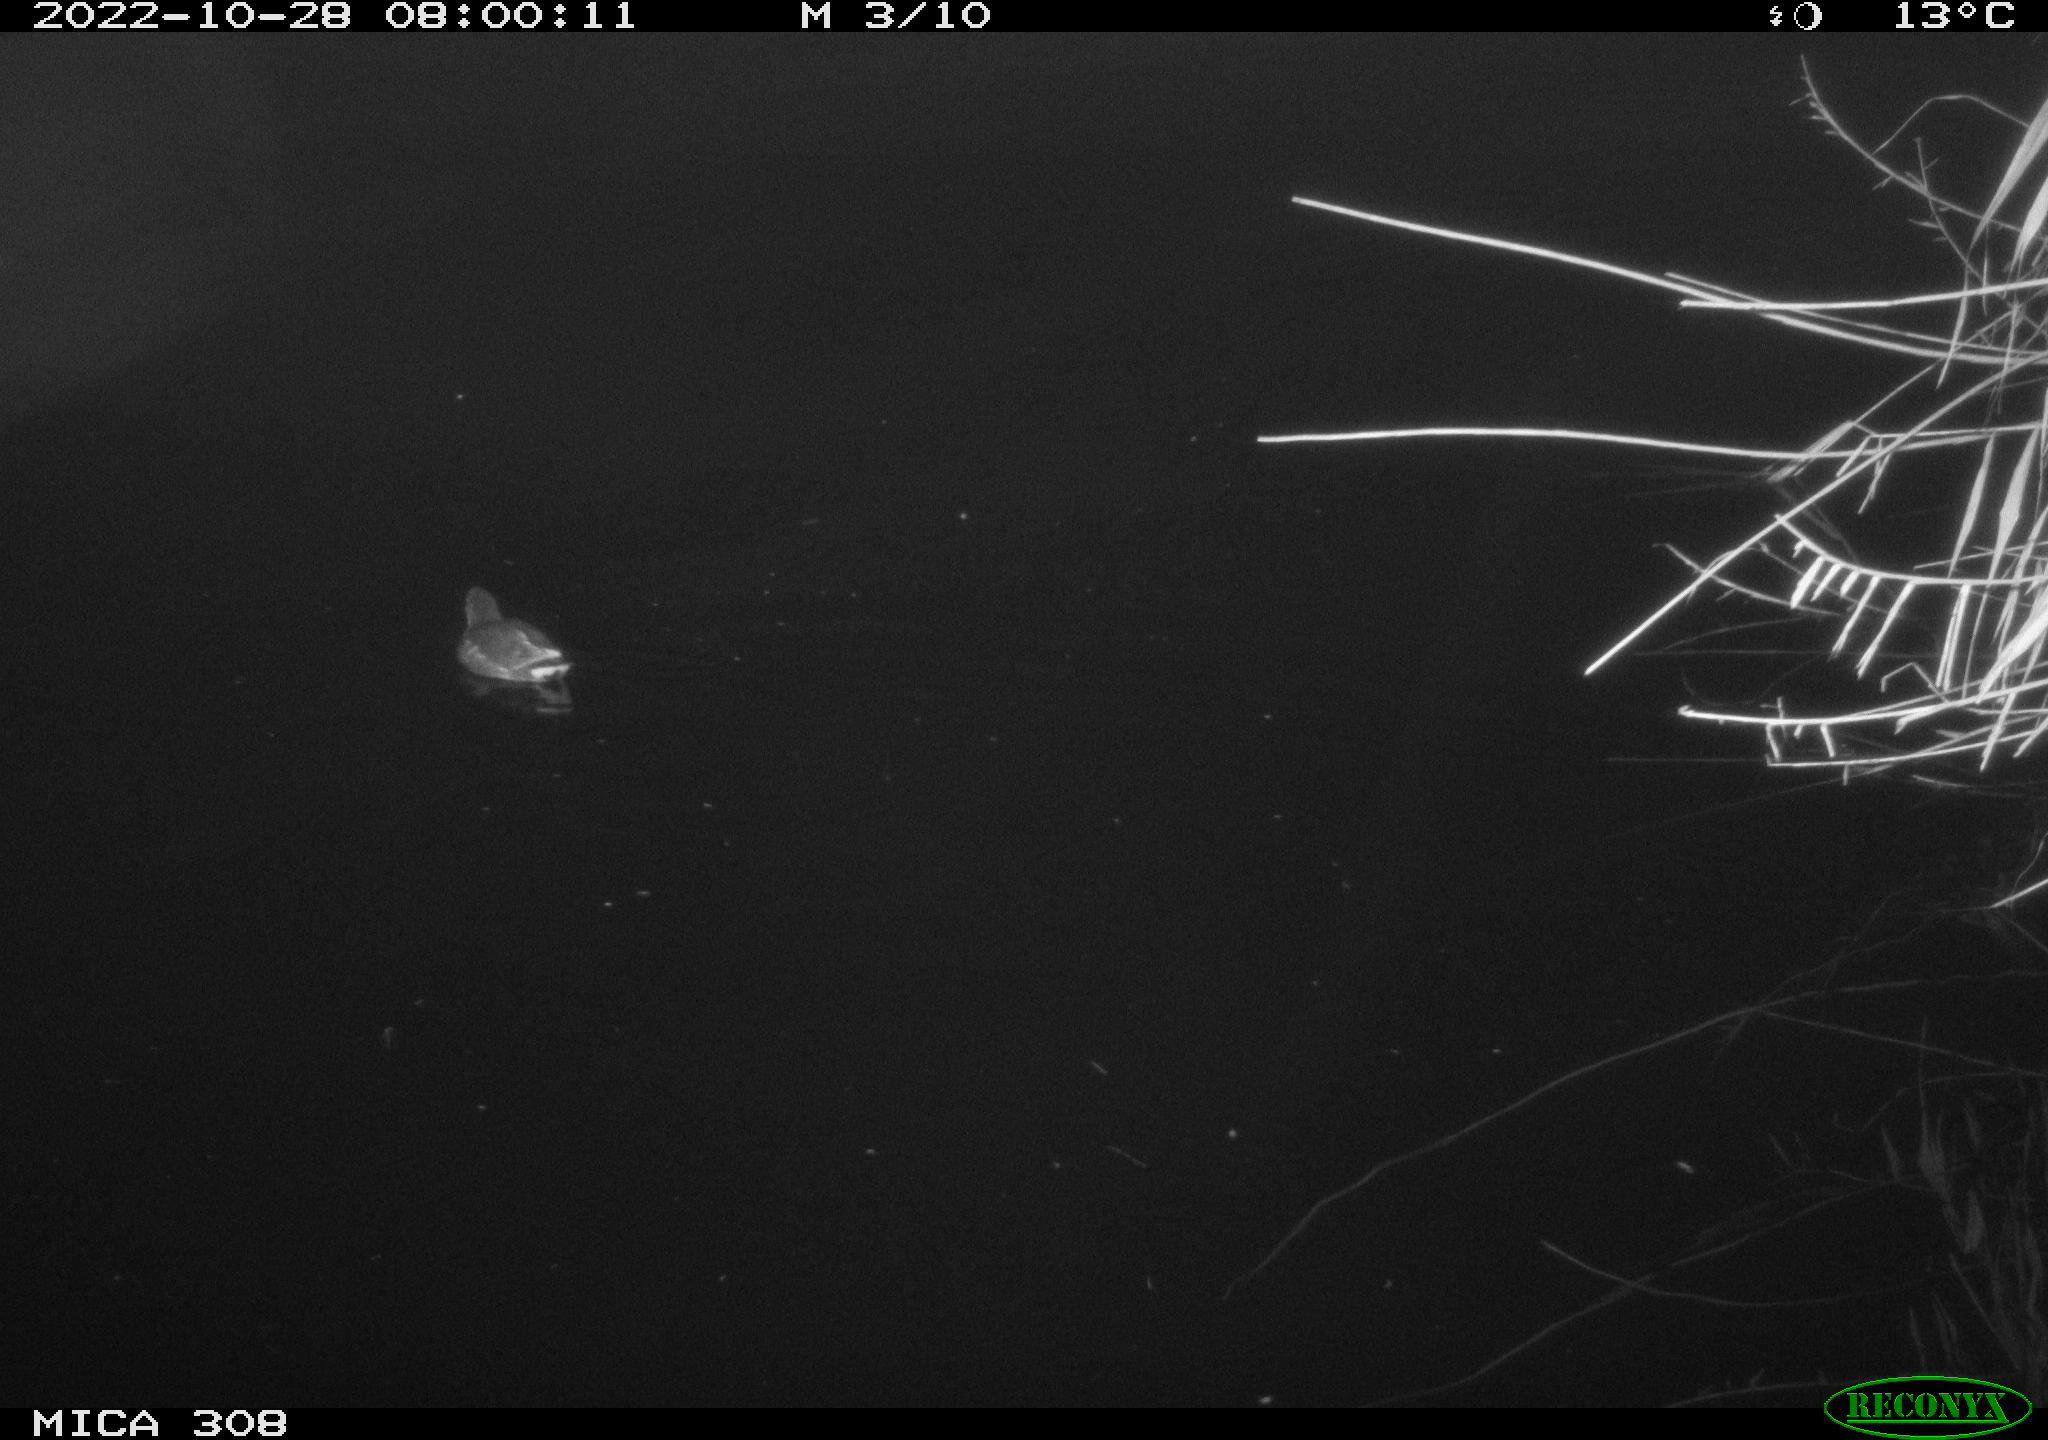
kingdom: Animalia
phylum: Chordata
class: Aves
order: Anseriformes
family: Anatidae
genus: Anas
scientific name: Anas
